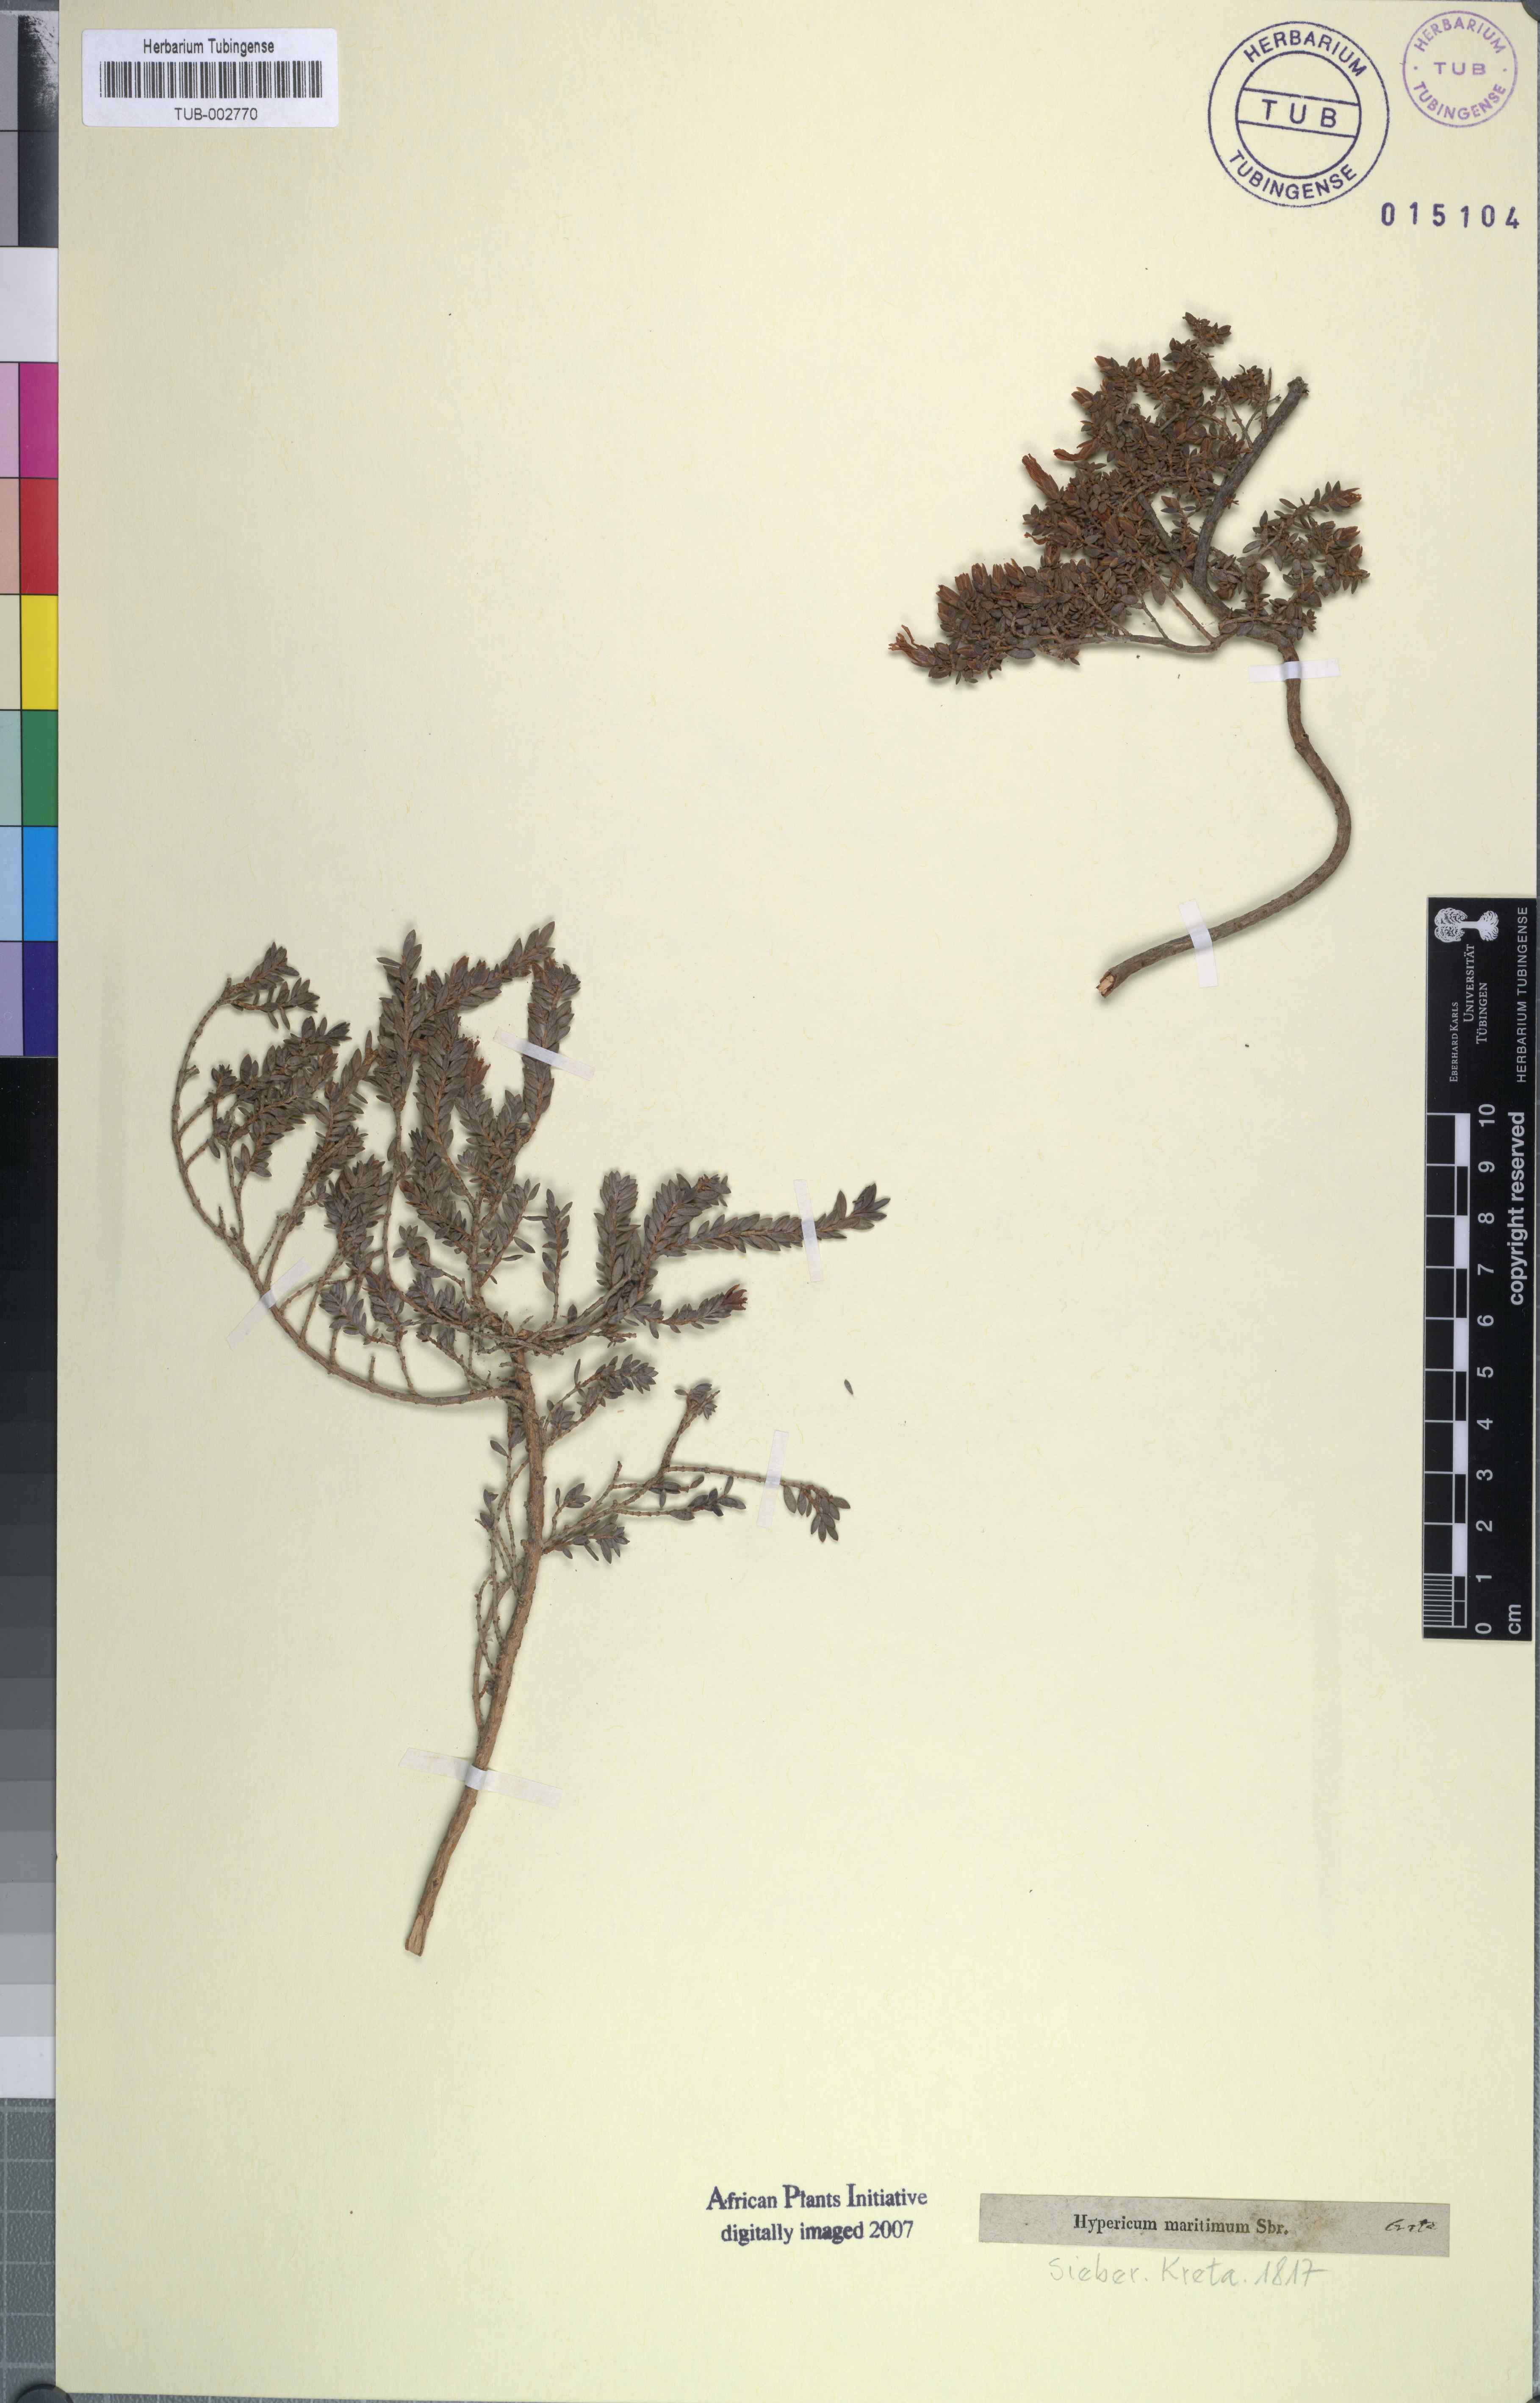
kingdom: Plantae
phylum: Tracheophyta
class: Magnoliopsida
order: Malpighiales
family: Hypericaceae
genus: Hypericum
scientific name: Hypericum aegypticum
